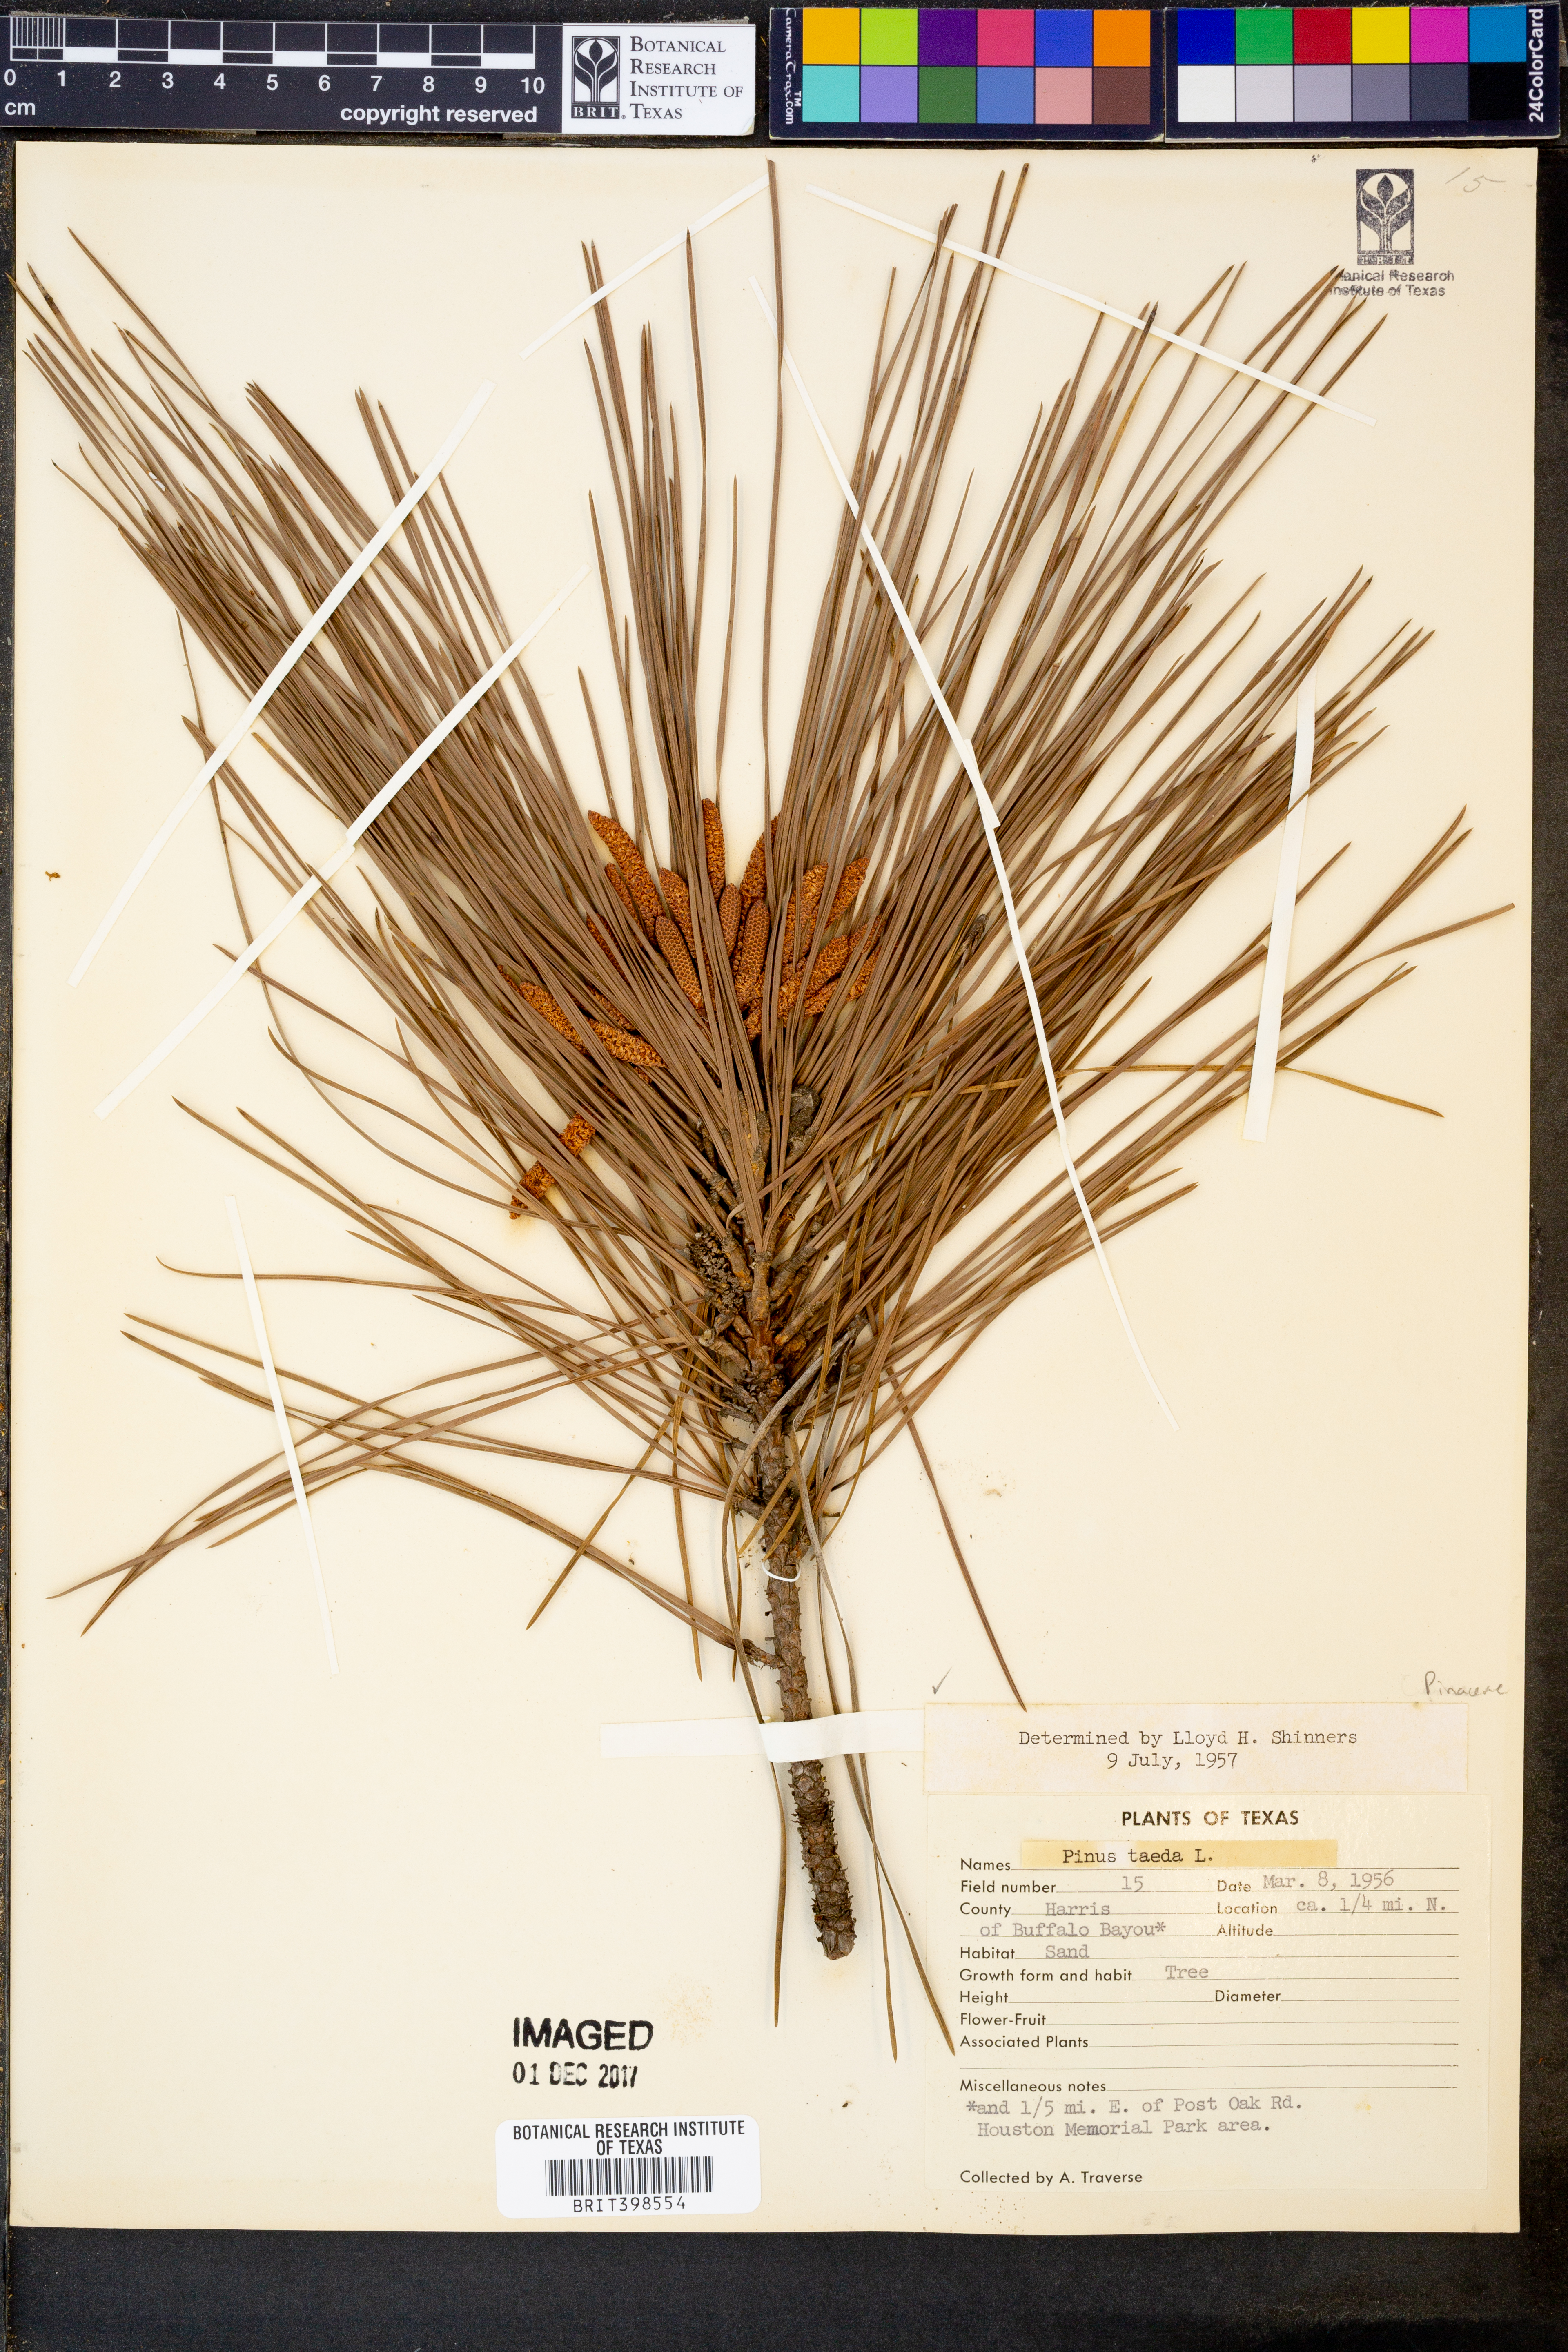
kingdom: Plantae
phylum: Tracheophyta
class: Pinopsida
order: Pinales
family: Pinaceae
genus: Pinus
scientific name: Pinus taeda
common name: Loblolly pine
